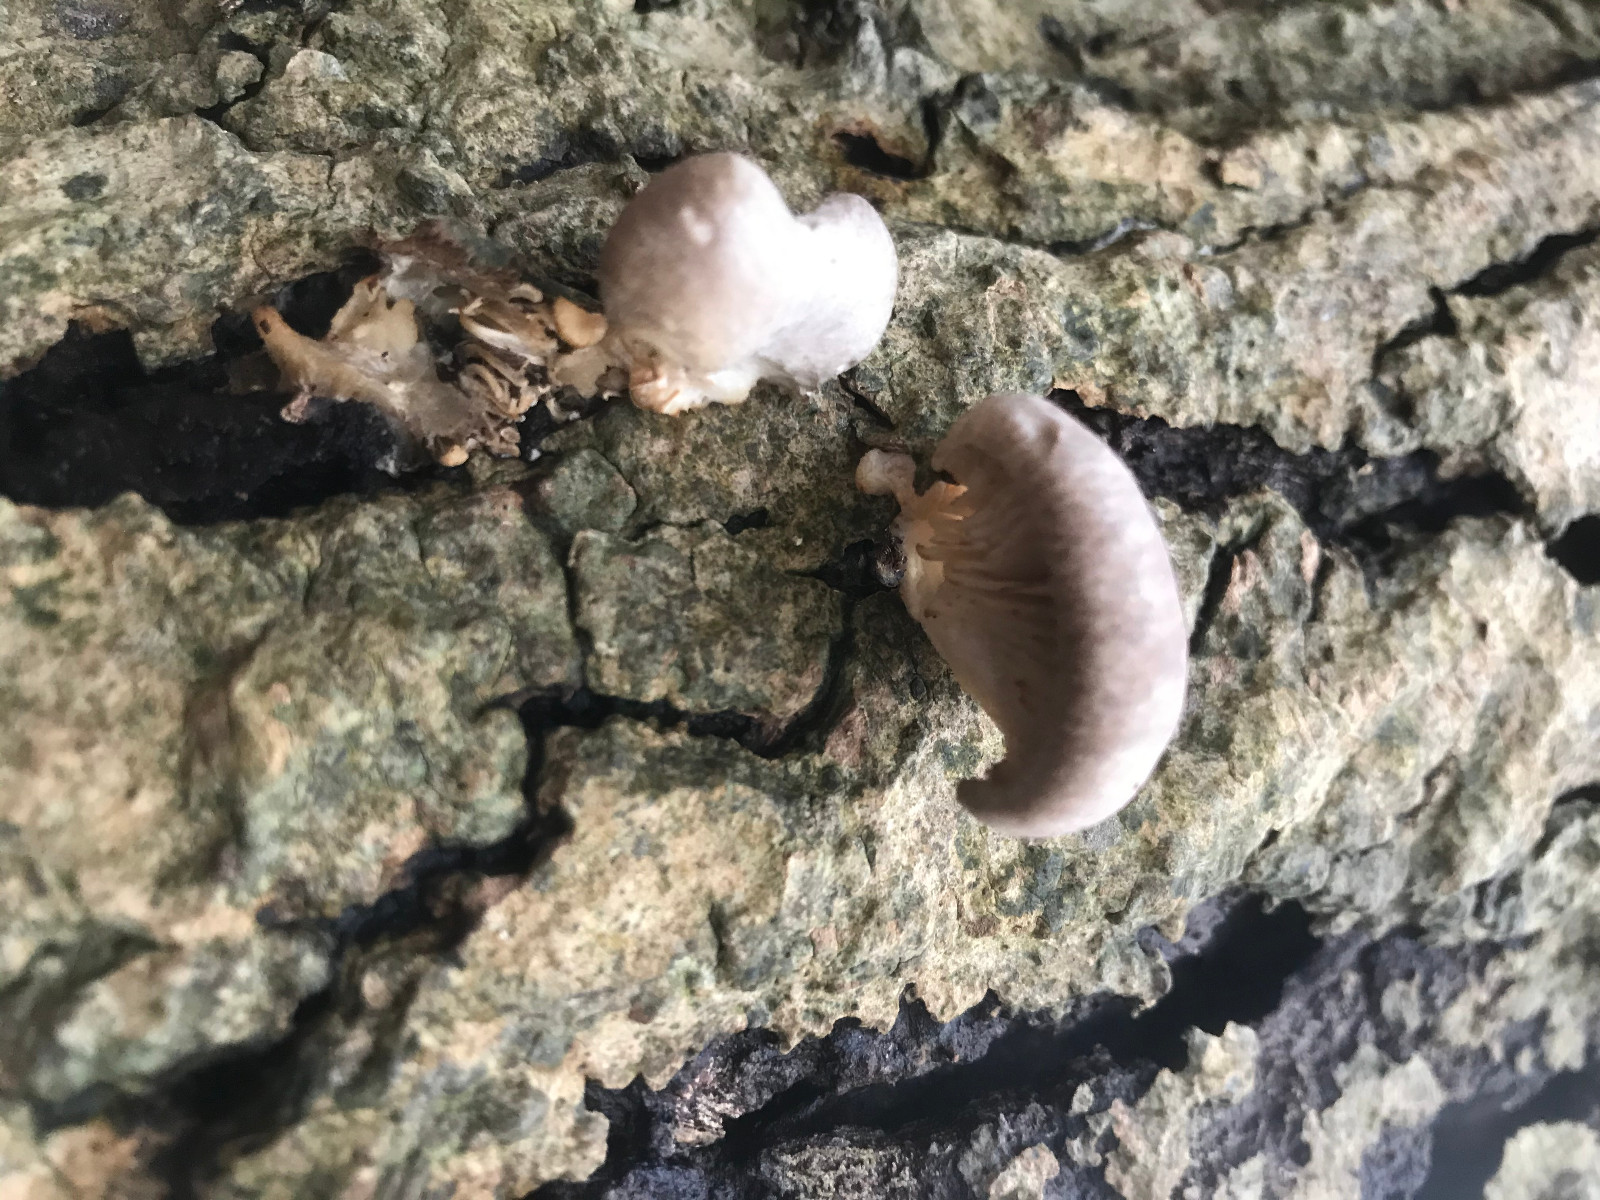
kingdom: Fungi
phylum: Basidiomycota
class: Agaricomycetes
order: Agaricales
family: Sarcomyxaceae
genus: Sarcomyxa
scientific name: Sarcomyxa serotina
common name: gummihat
